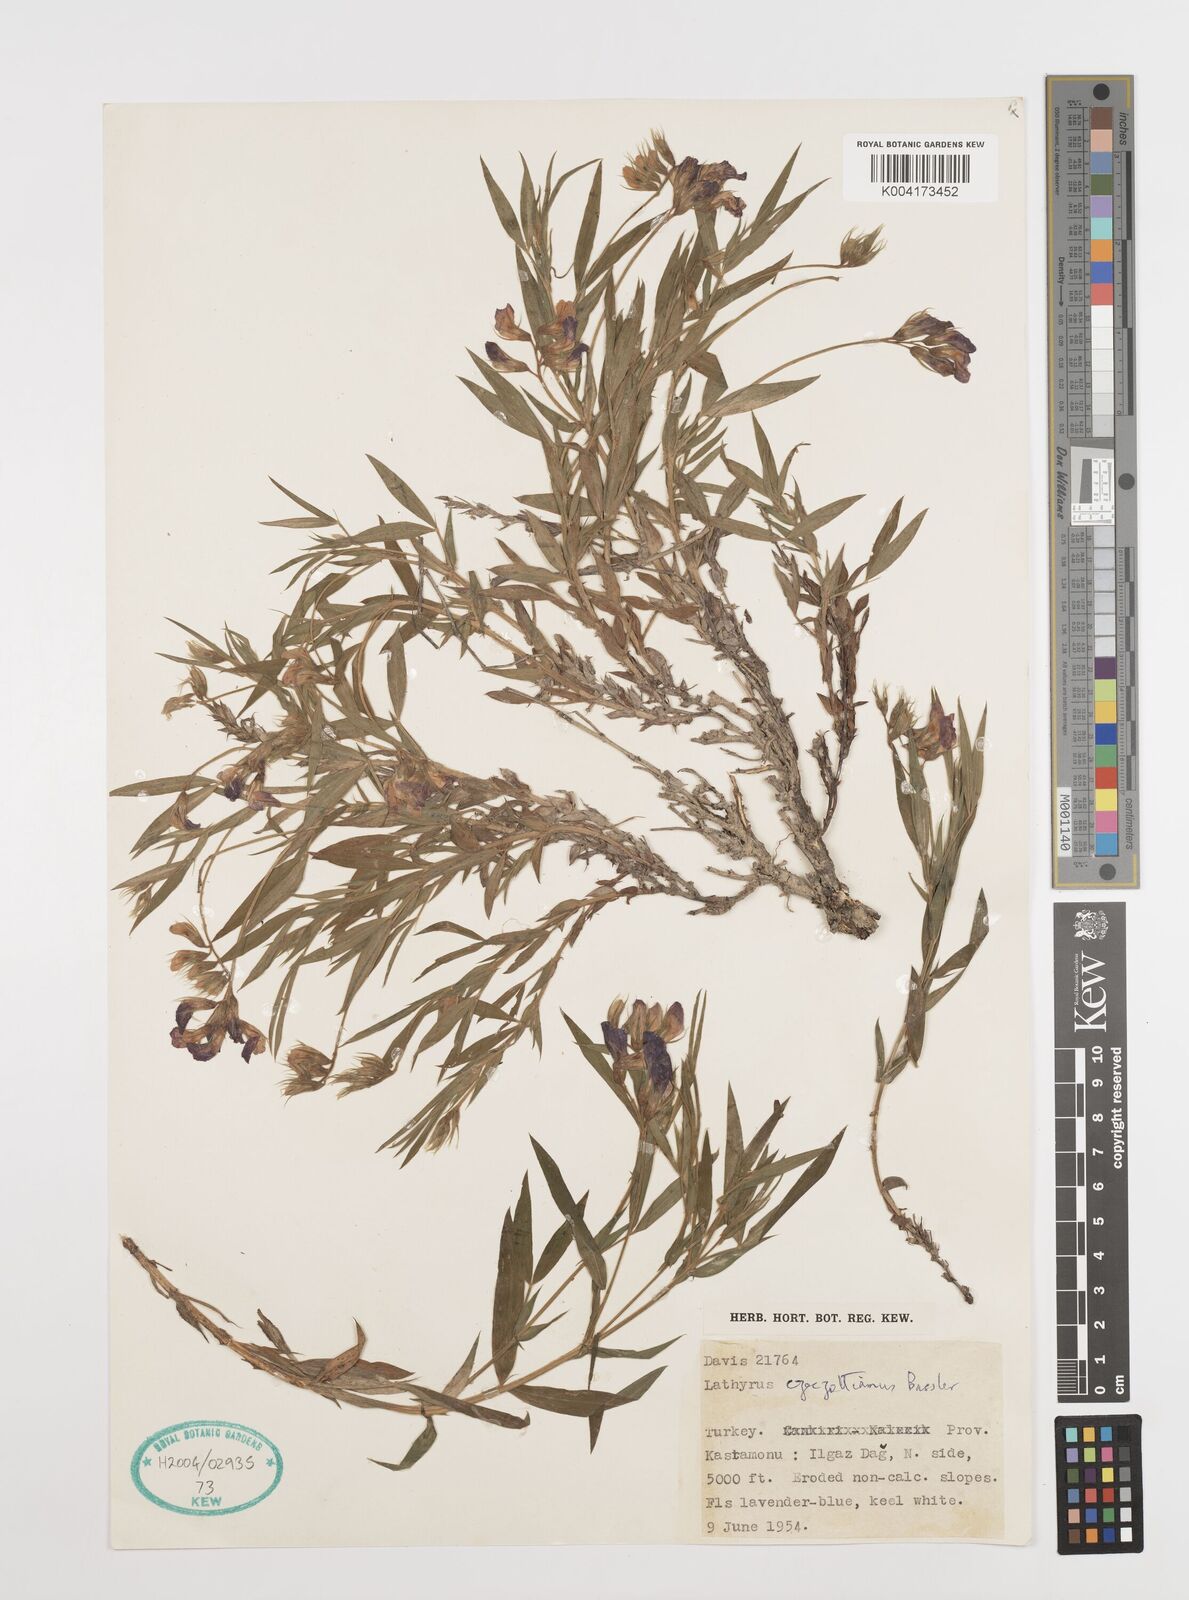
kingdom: Plantae
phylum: Tracheophyta
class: Magnoliopsida
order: Fabales
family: Fabaceae
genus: Lathyrus
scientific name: Lathyrus czeczottianus
